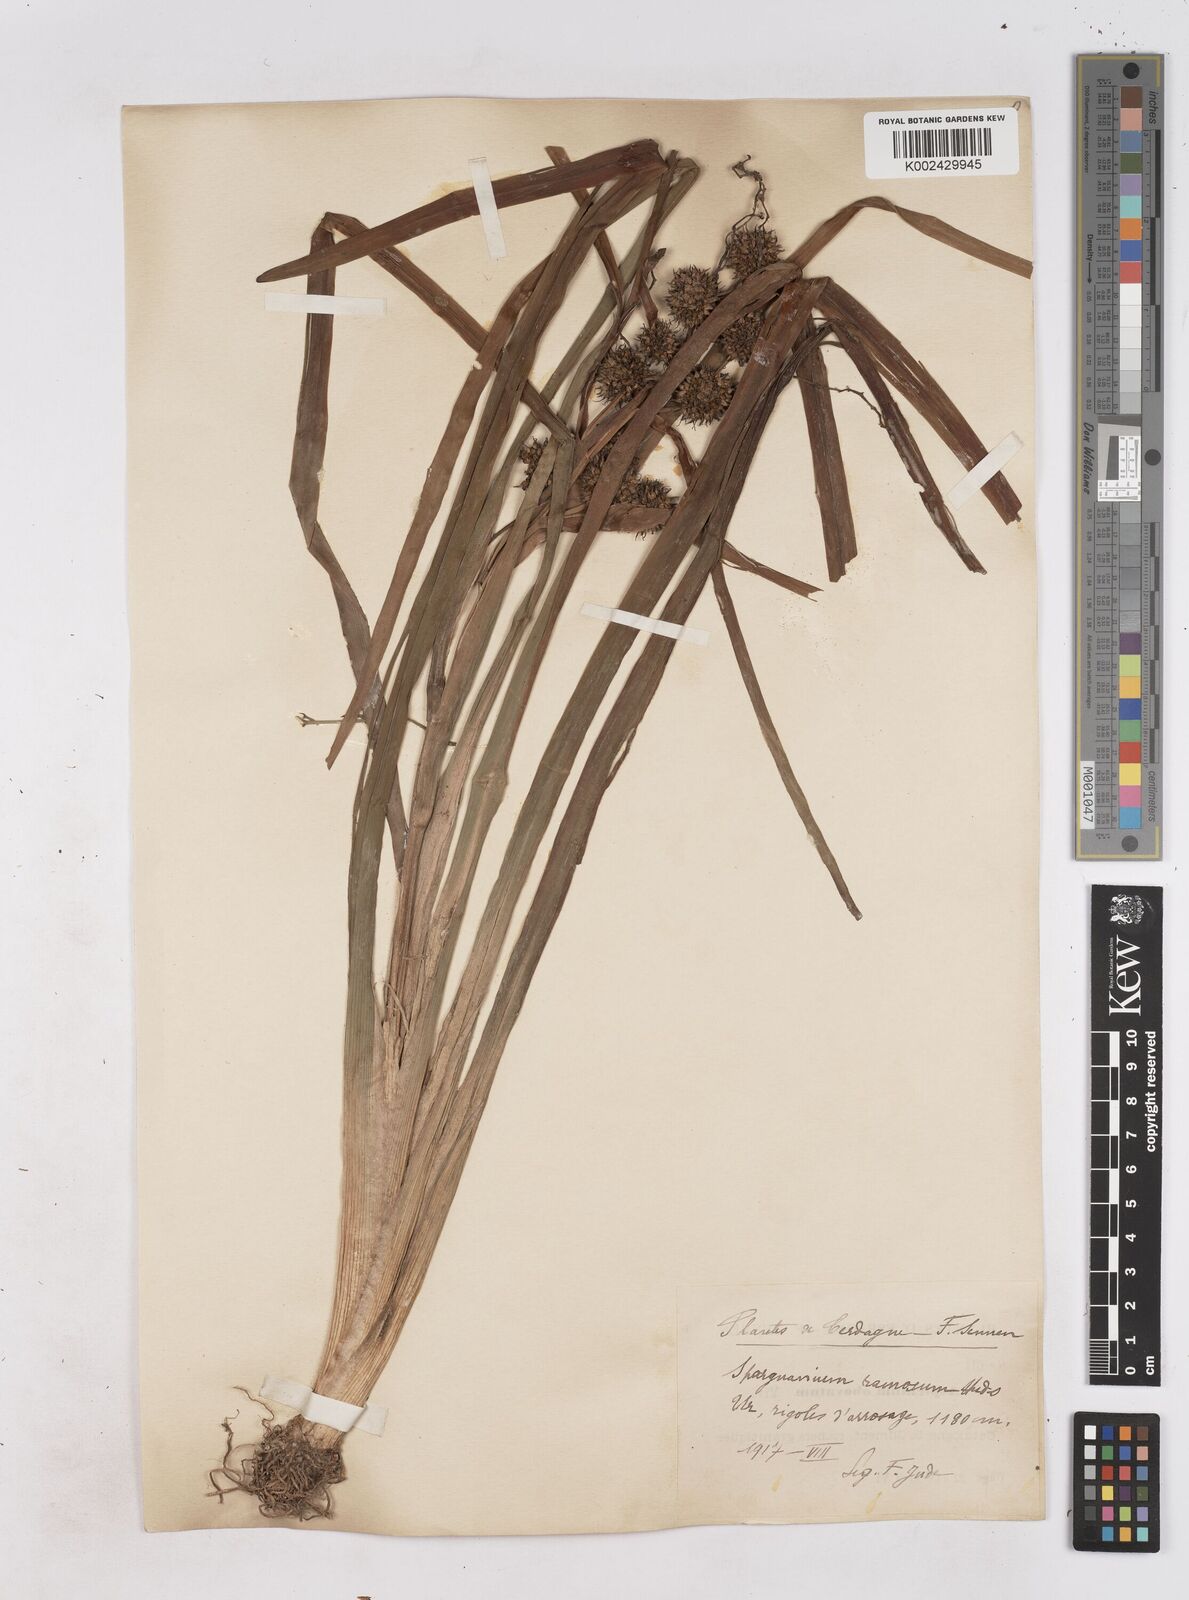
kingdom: Plantae
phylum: Tracheophyta
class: Liliopsida
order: Poales
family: Typhaceae
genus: Sparganium
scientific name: Sparganium erectum
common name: Branched bur-reed
